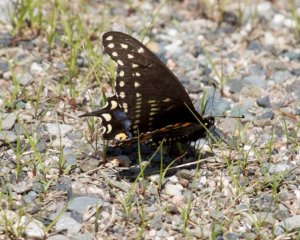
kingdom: Animalia
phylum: Arthropoda
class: Insecta
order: Lepidoptera
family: Papilionidae
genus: Papilio
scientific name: Papilio polyxenes
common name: Black Swallowtail
